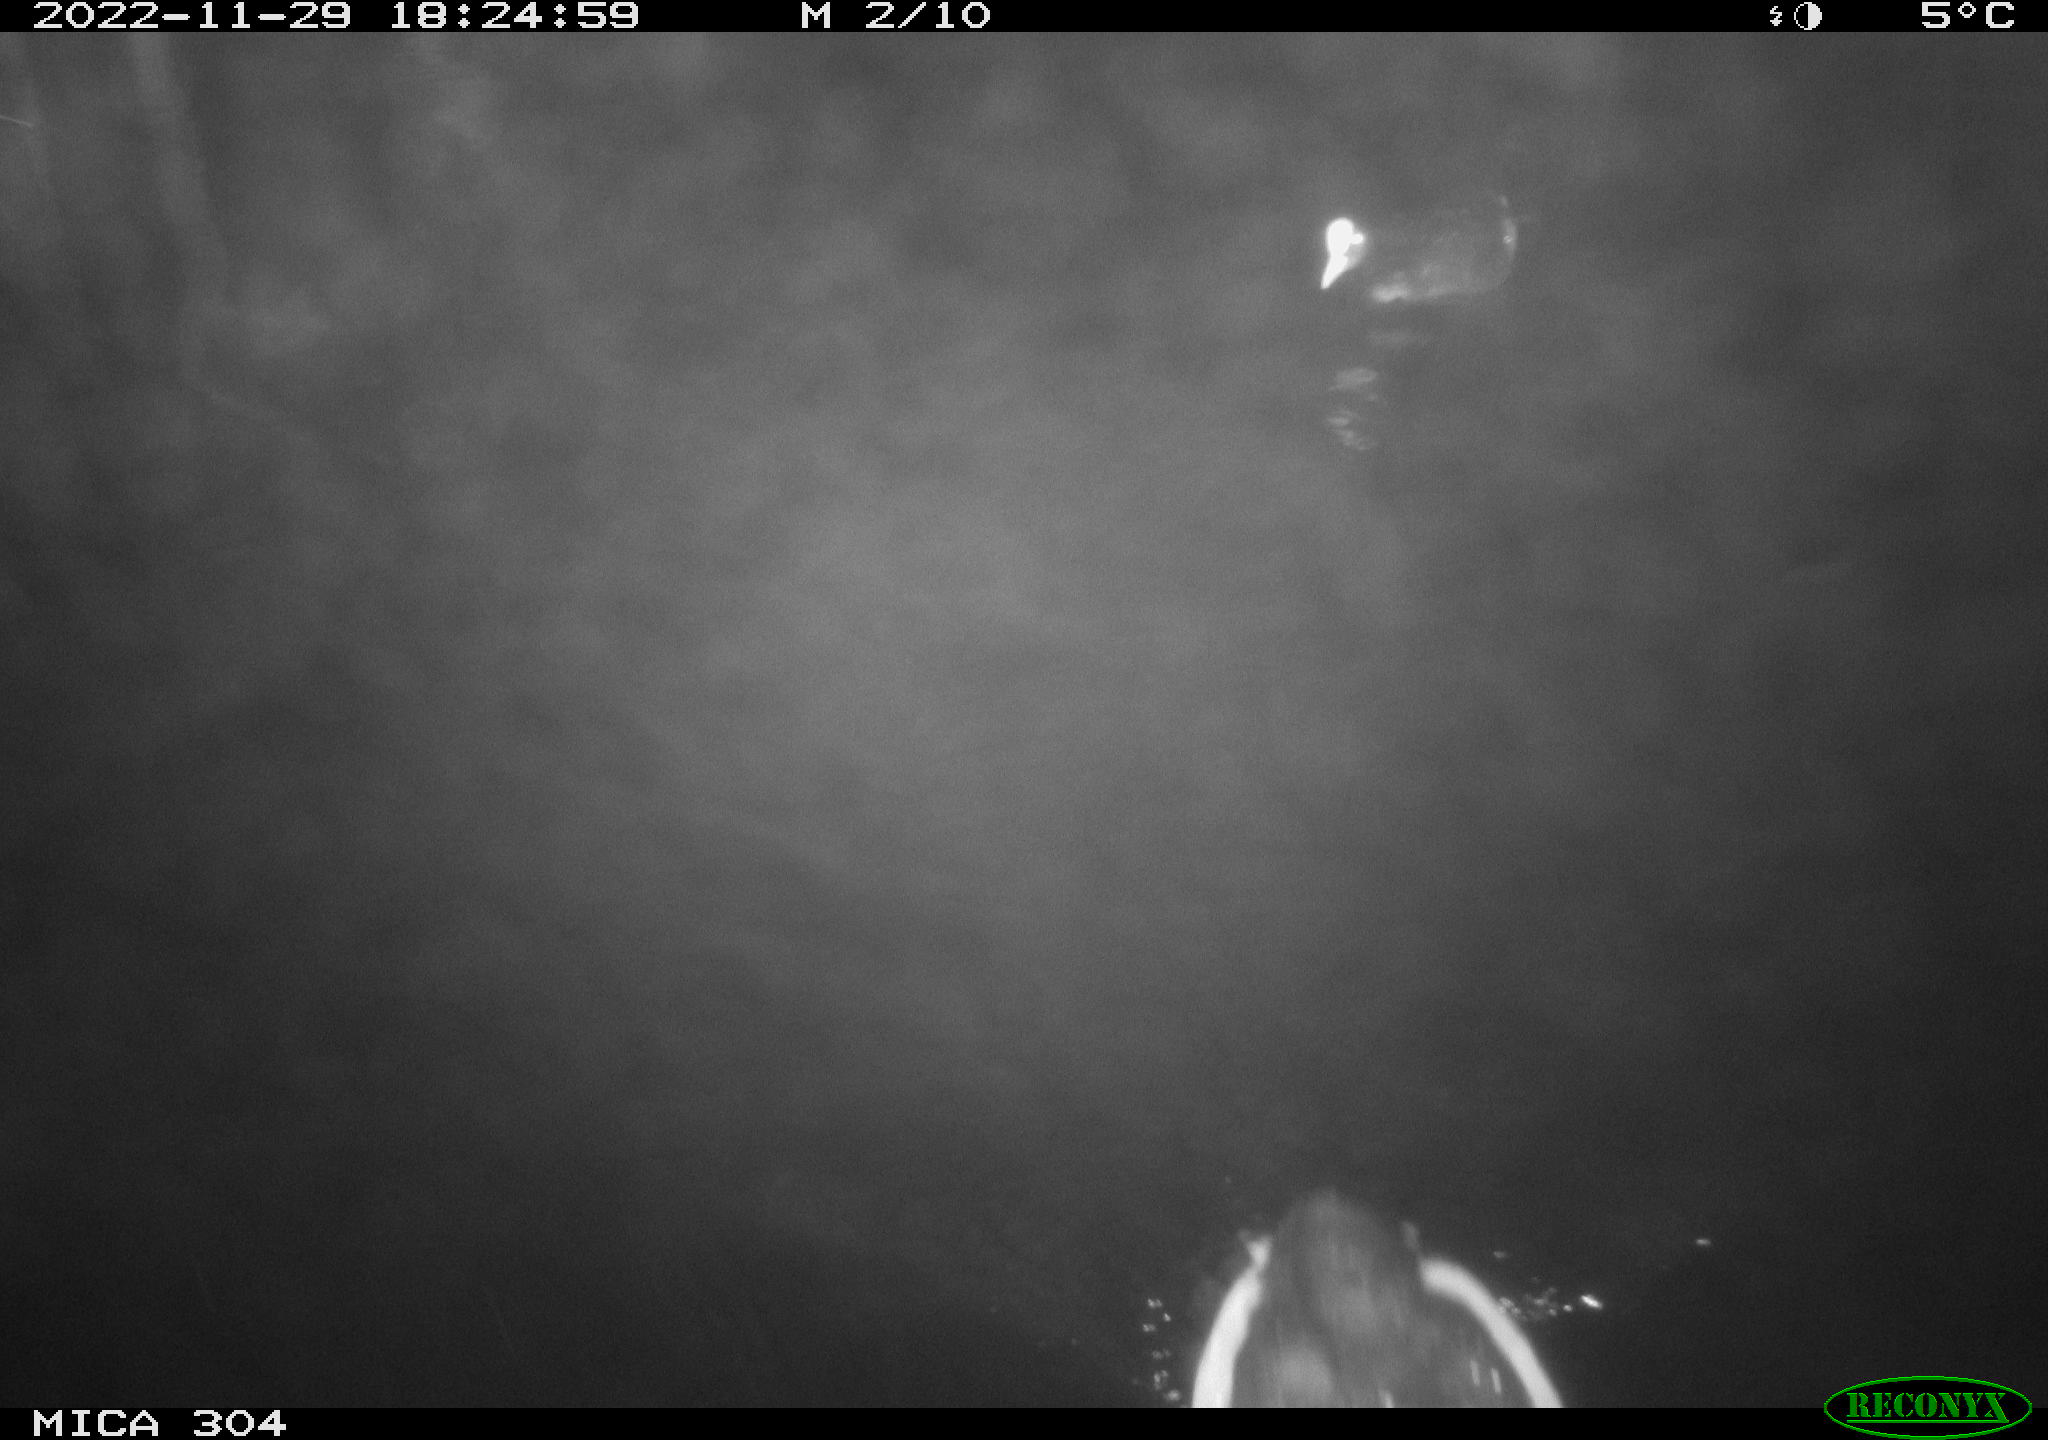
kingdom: Animalia
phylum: Chordata
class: Mammalia
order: Rodentia
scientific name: Rodentia
